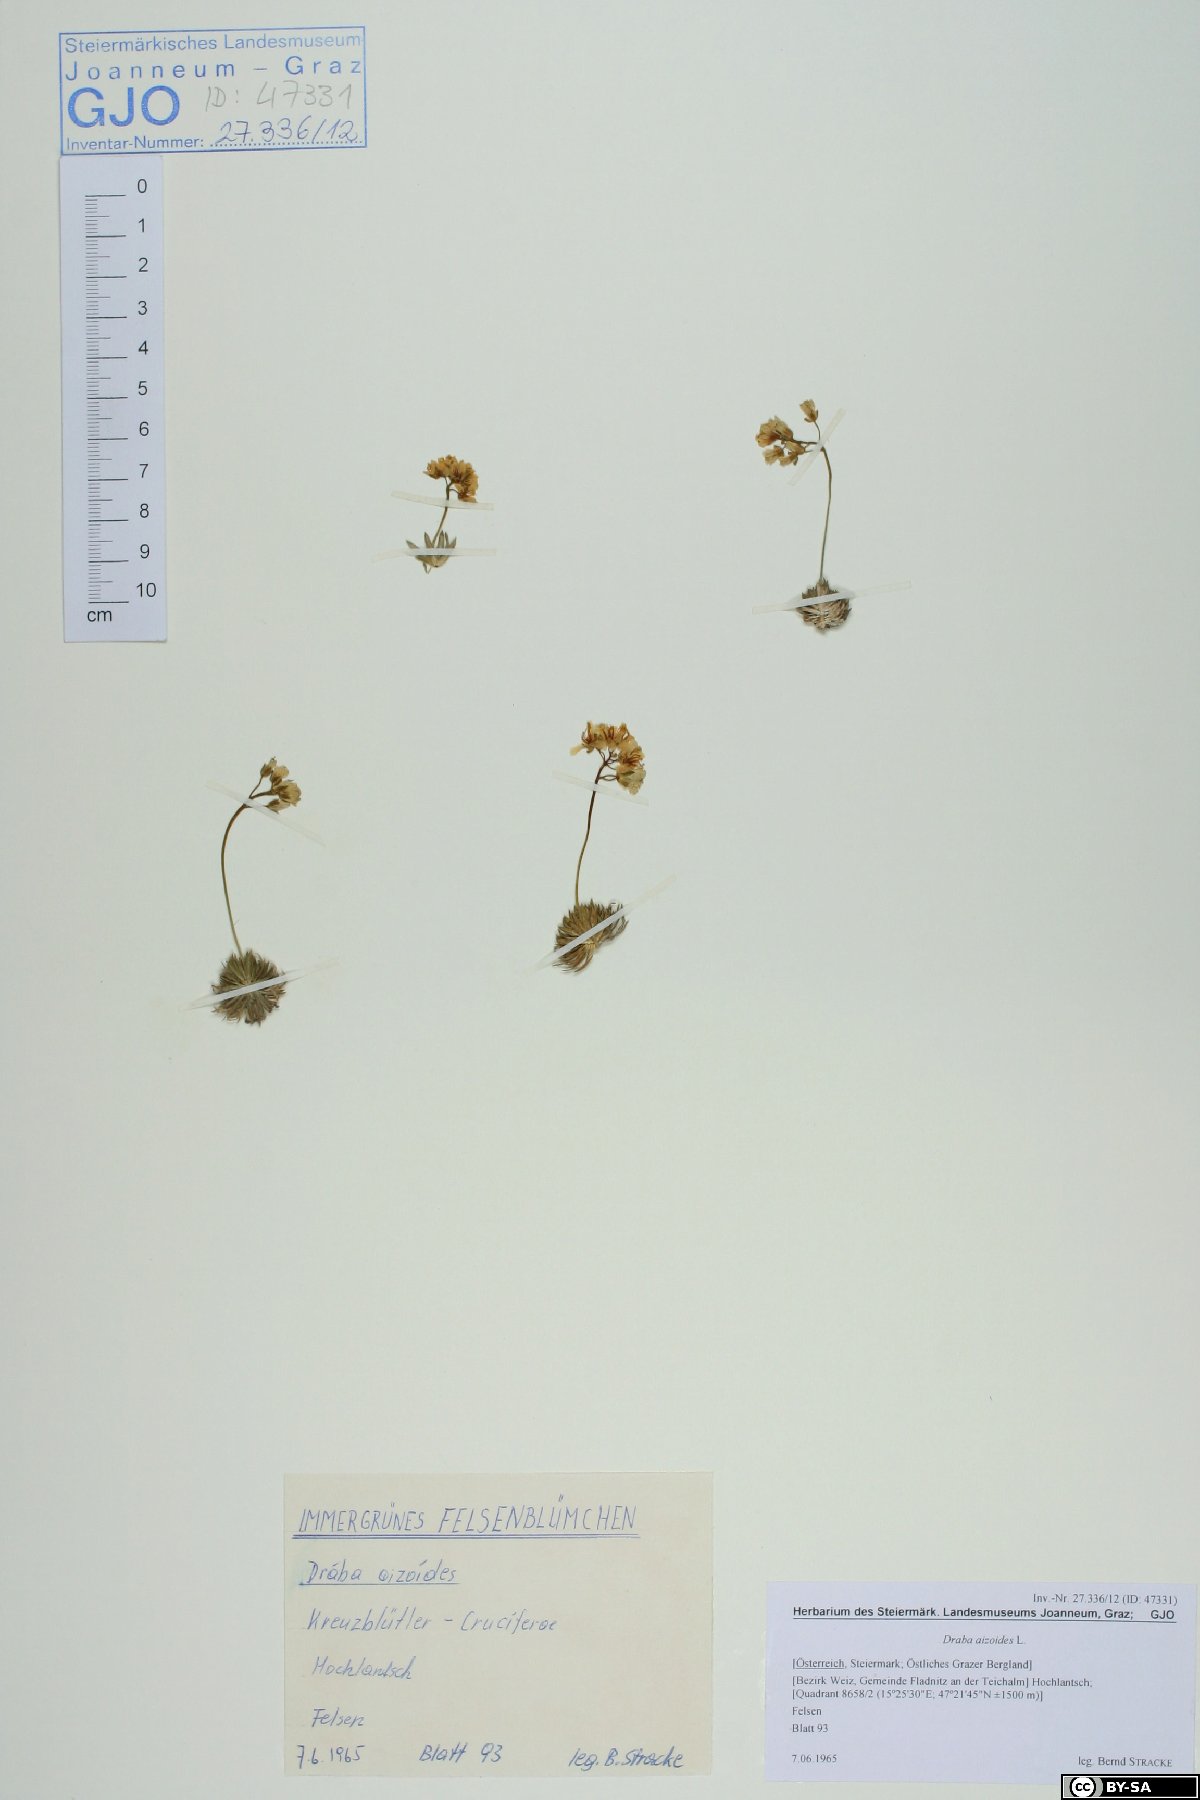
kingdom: Plantae
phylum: Tracheophyta
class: Magnoliopsida
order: Brassicales
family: Brassicaceae
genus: Draba
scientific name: Draba aizoides
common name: Yellow whitlowgrass
